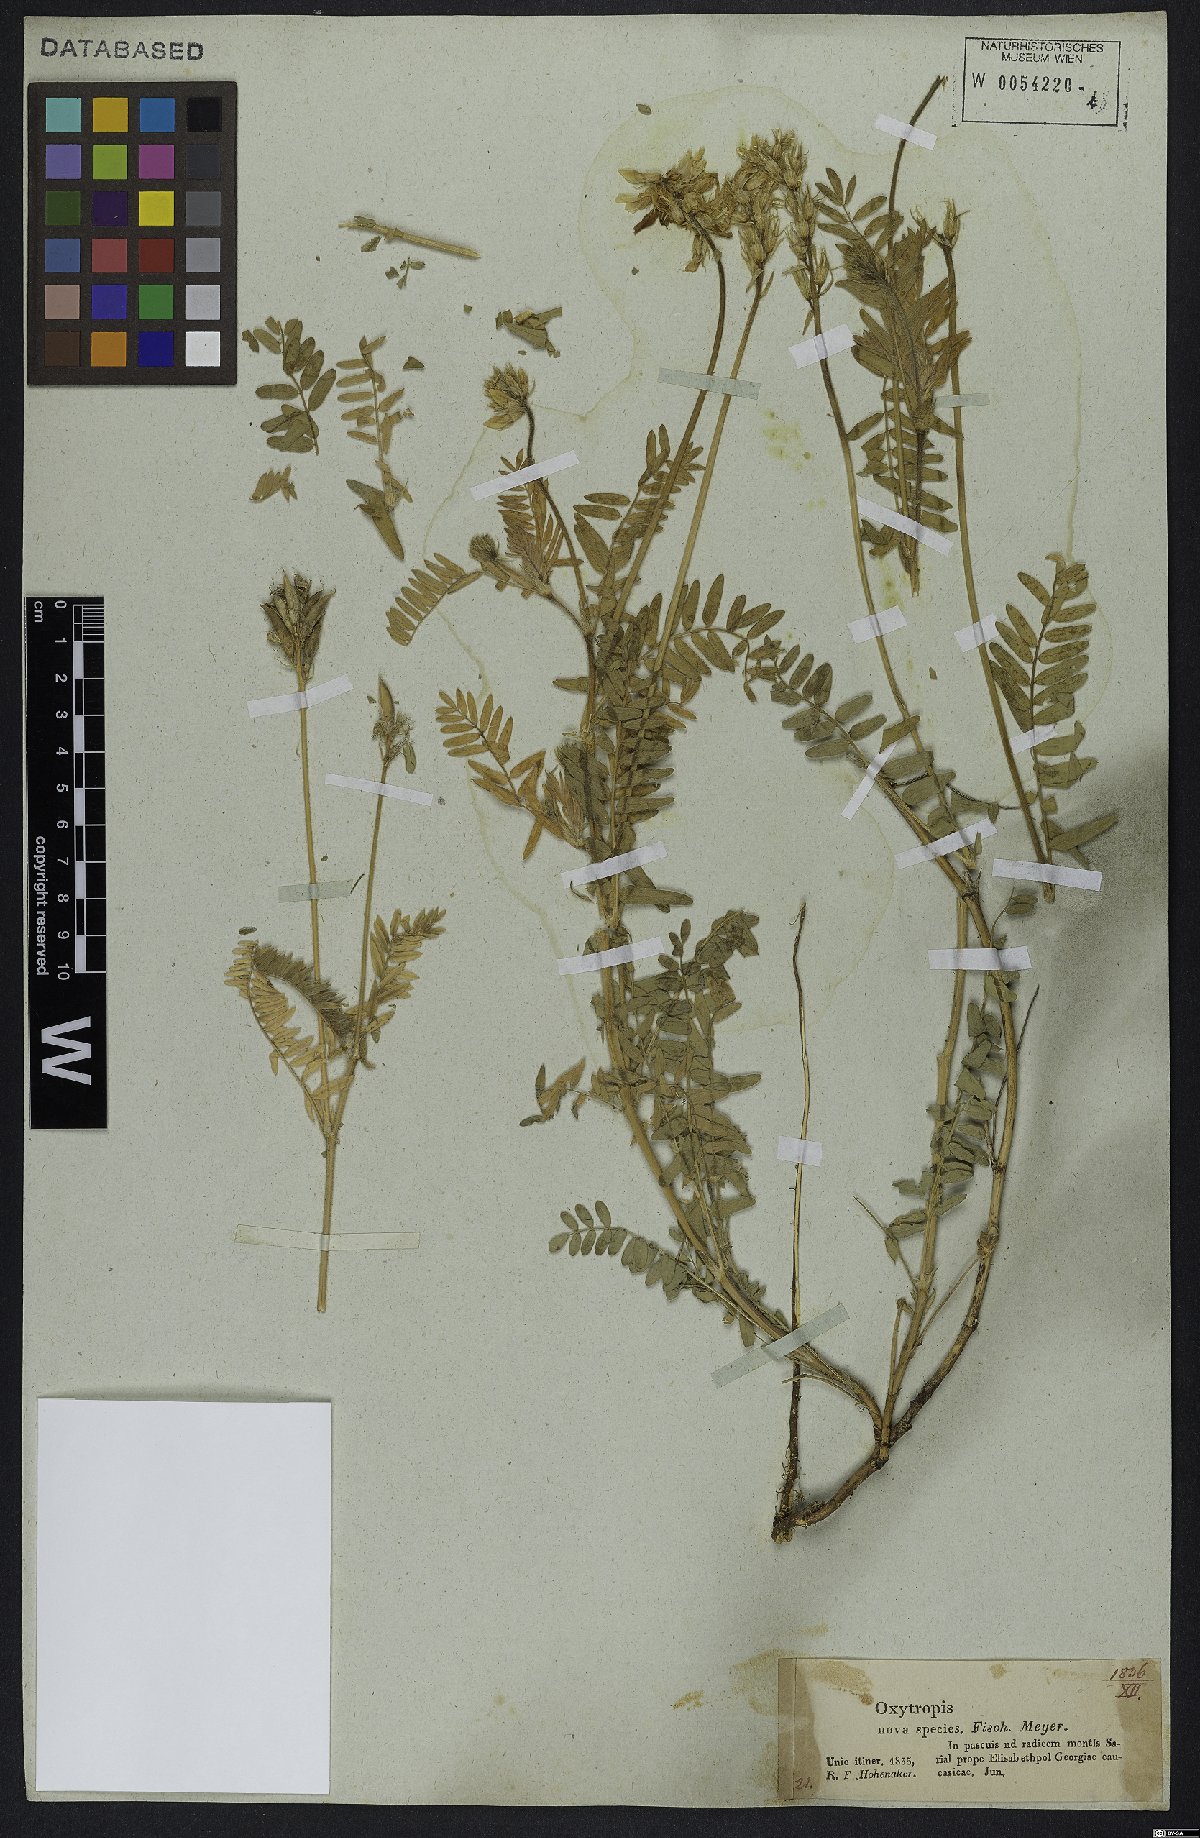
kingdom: Plantae
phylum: Tracheophyta
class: Magnoliopsida
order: Fabales
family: Fabaceae
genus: Oxytropis
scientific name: Oxytropis
